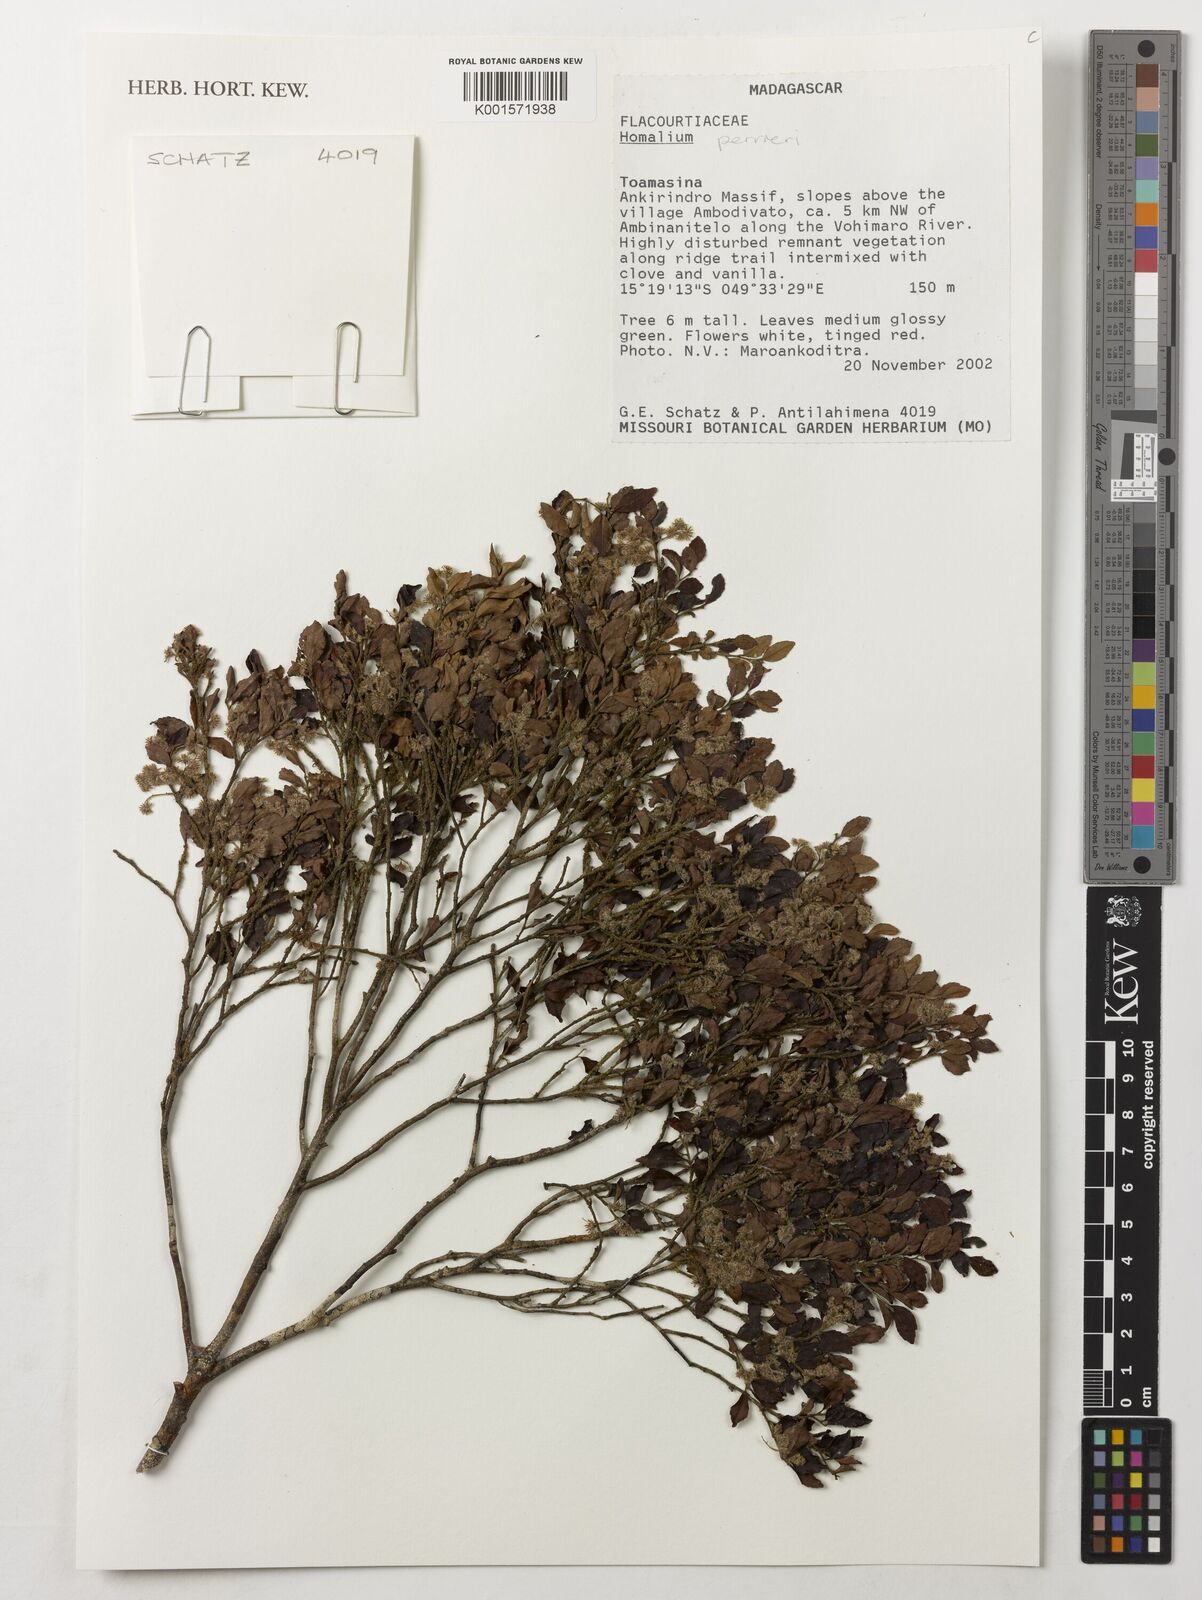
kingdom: Plantae
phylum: Tracheophyta
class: Magnoliopsida
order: Malpighiales
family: Salicaceae
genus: Homalium
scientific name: Homalium perrieri
